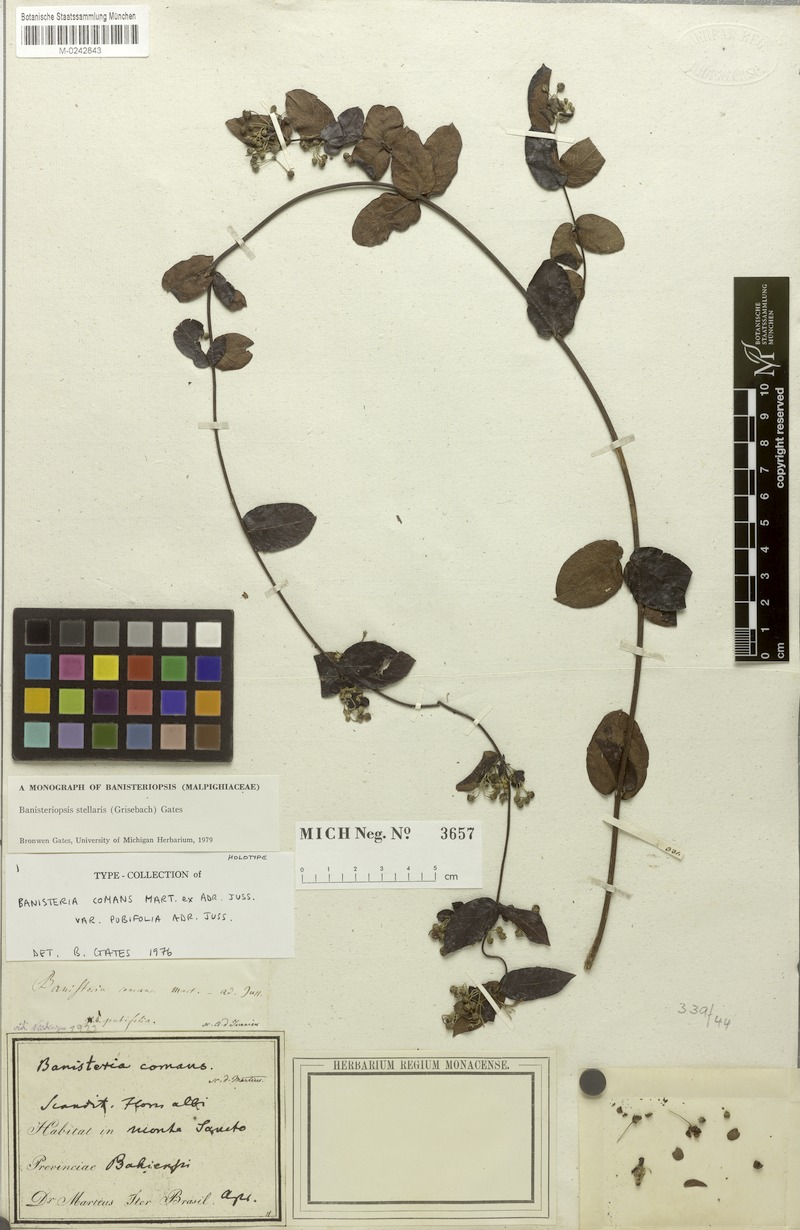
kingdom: Plantae
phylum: Tracheophyta
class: Magnoliopsida
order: Malpighiales
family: Malpighiaceae
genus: Banisteriopsis
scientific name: Banisteriopsis stellaris
